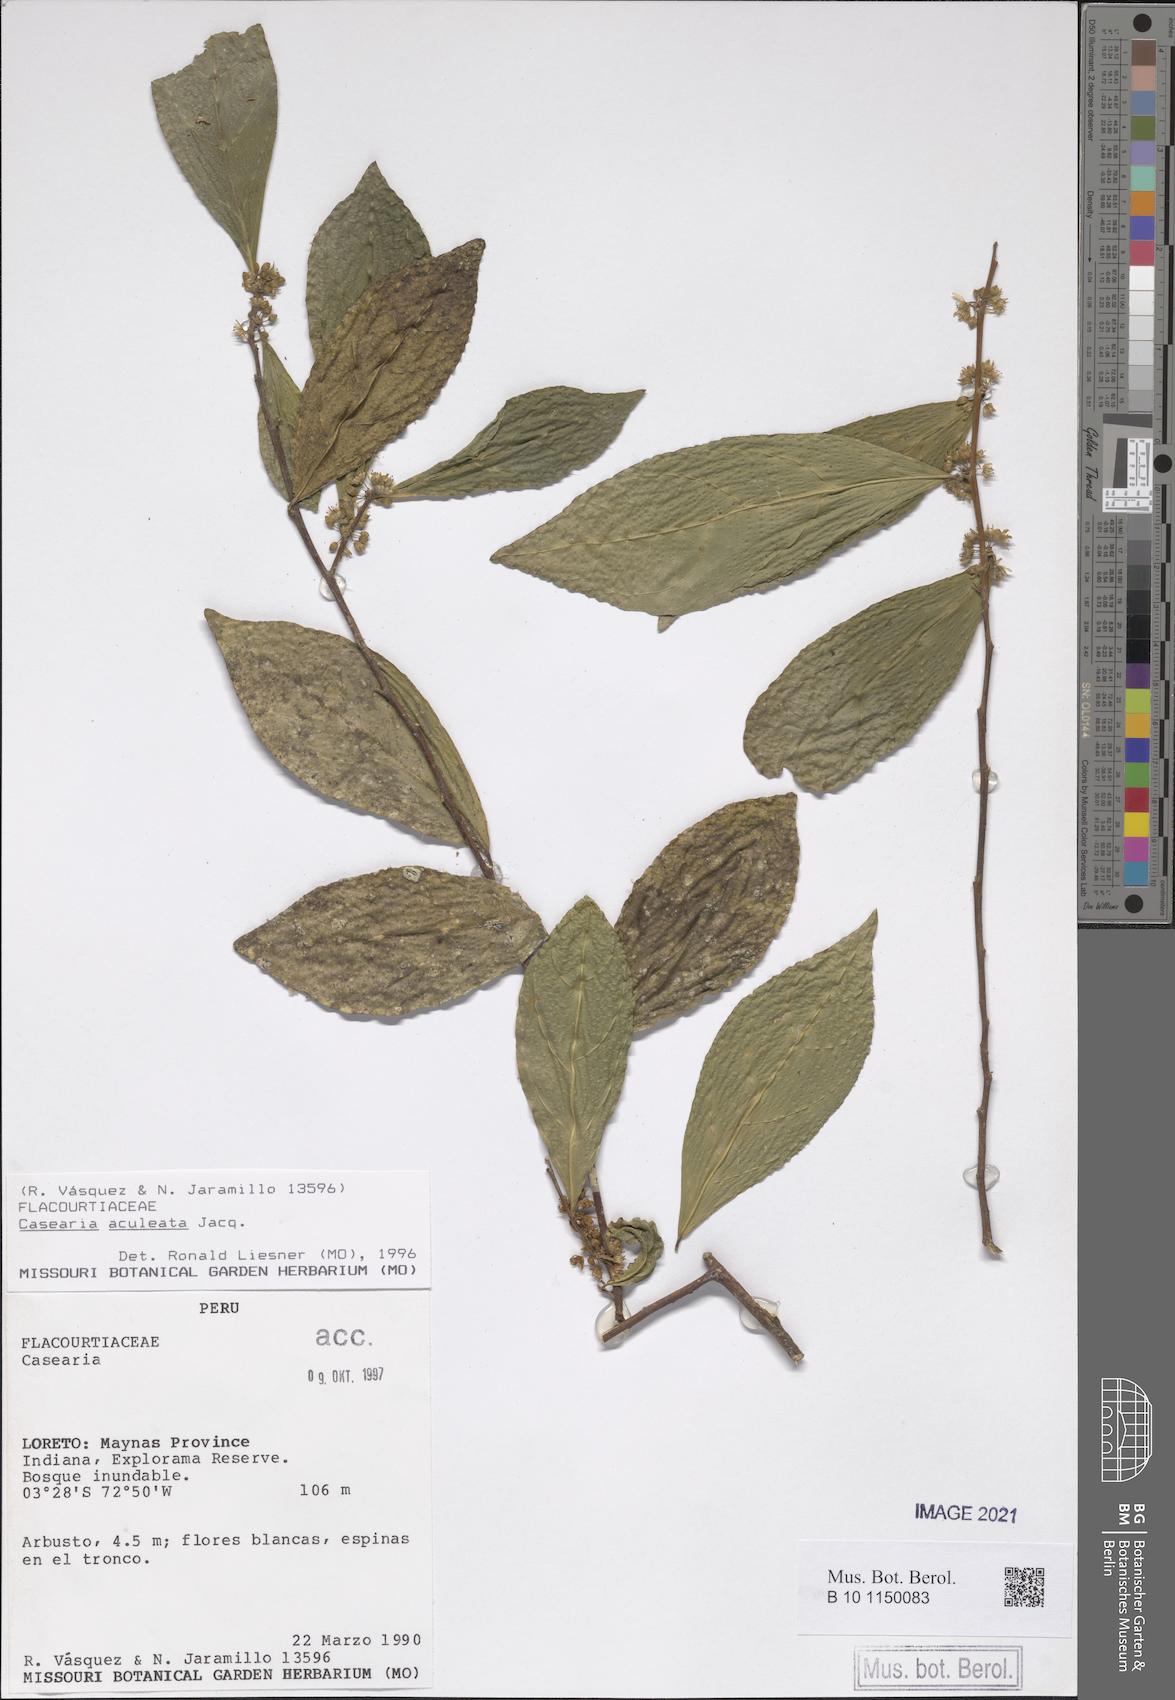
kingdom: Plantae
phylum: Tracheophyta
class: Magnoliopsida
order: Malpighiales
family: Salicaceae
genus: Casearia
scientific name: Casearia aculeata
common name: Cockspur
